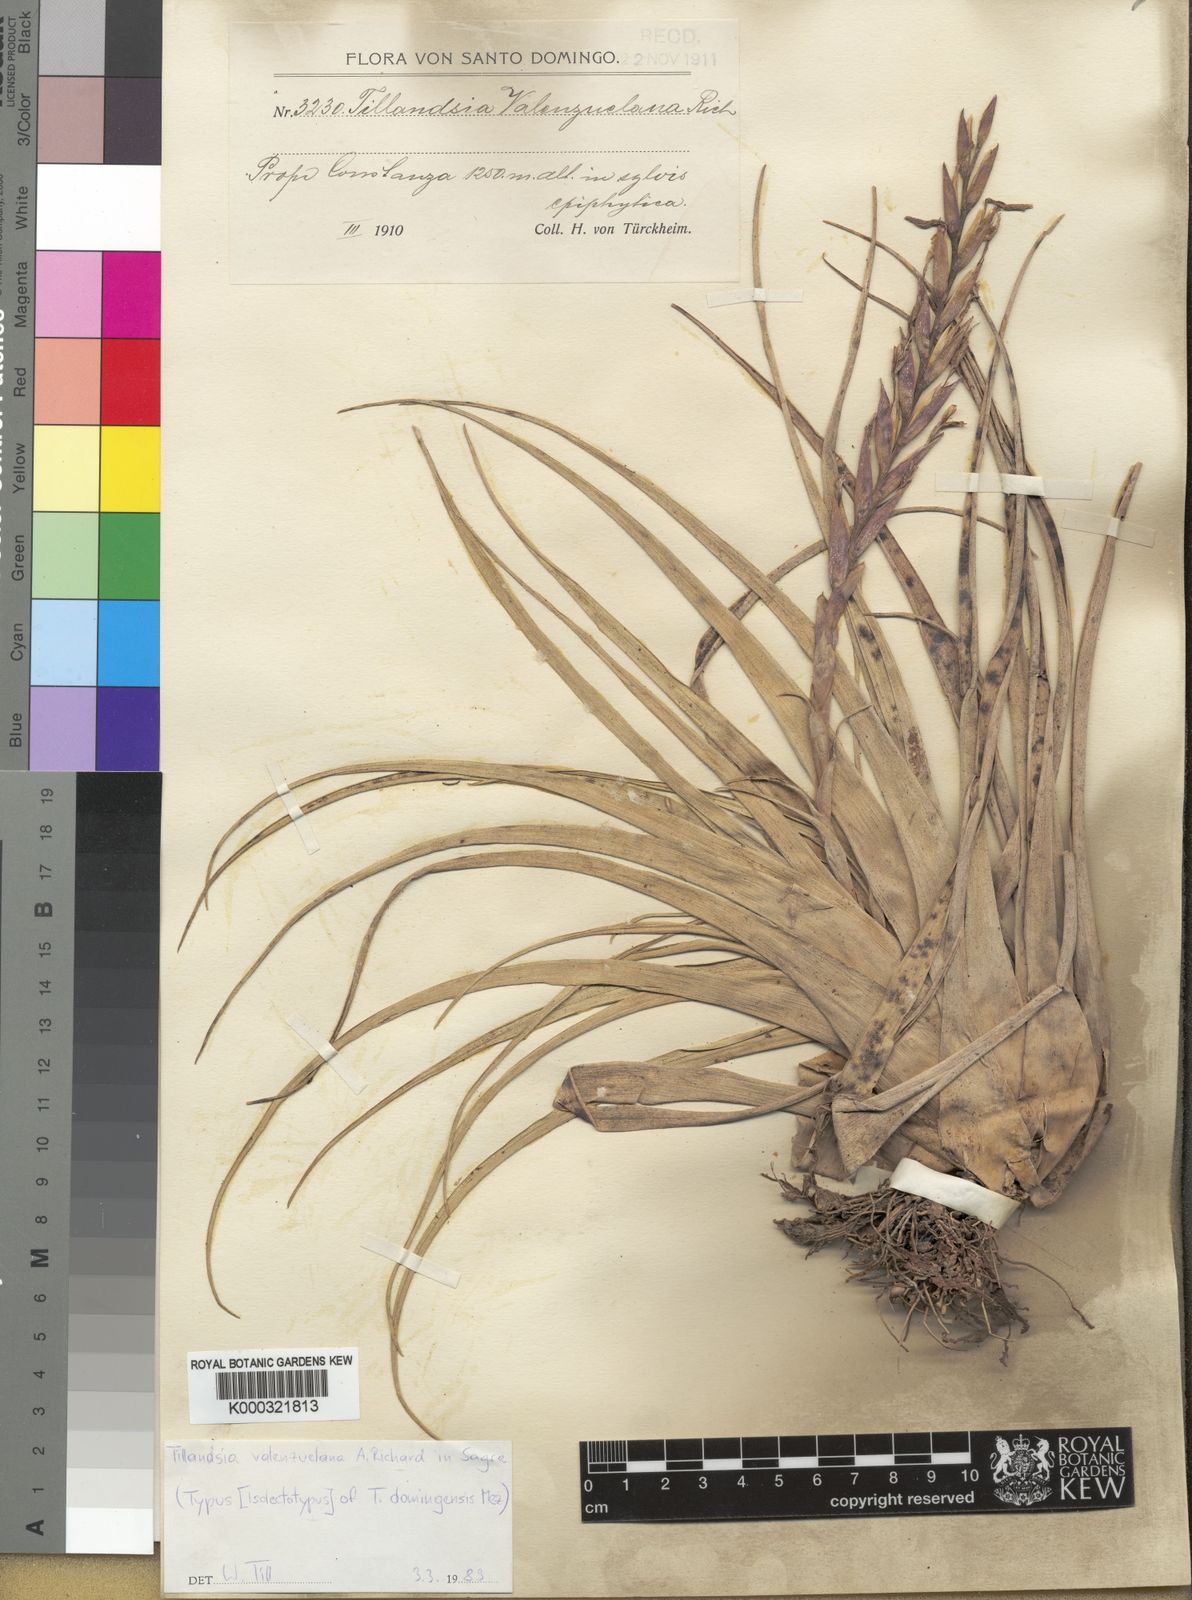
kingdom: Plantae
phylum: Tracheophyta
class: Liliopsida
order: Poales
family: Bromeliaceae
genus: Tillandsia
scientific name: Tillandsia variabilis
